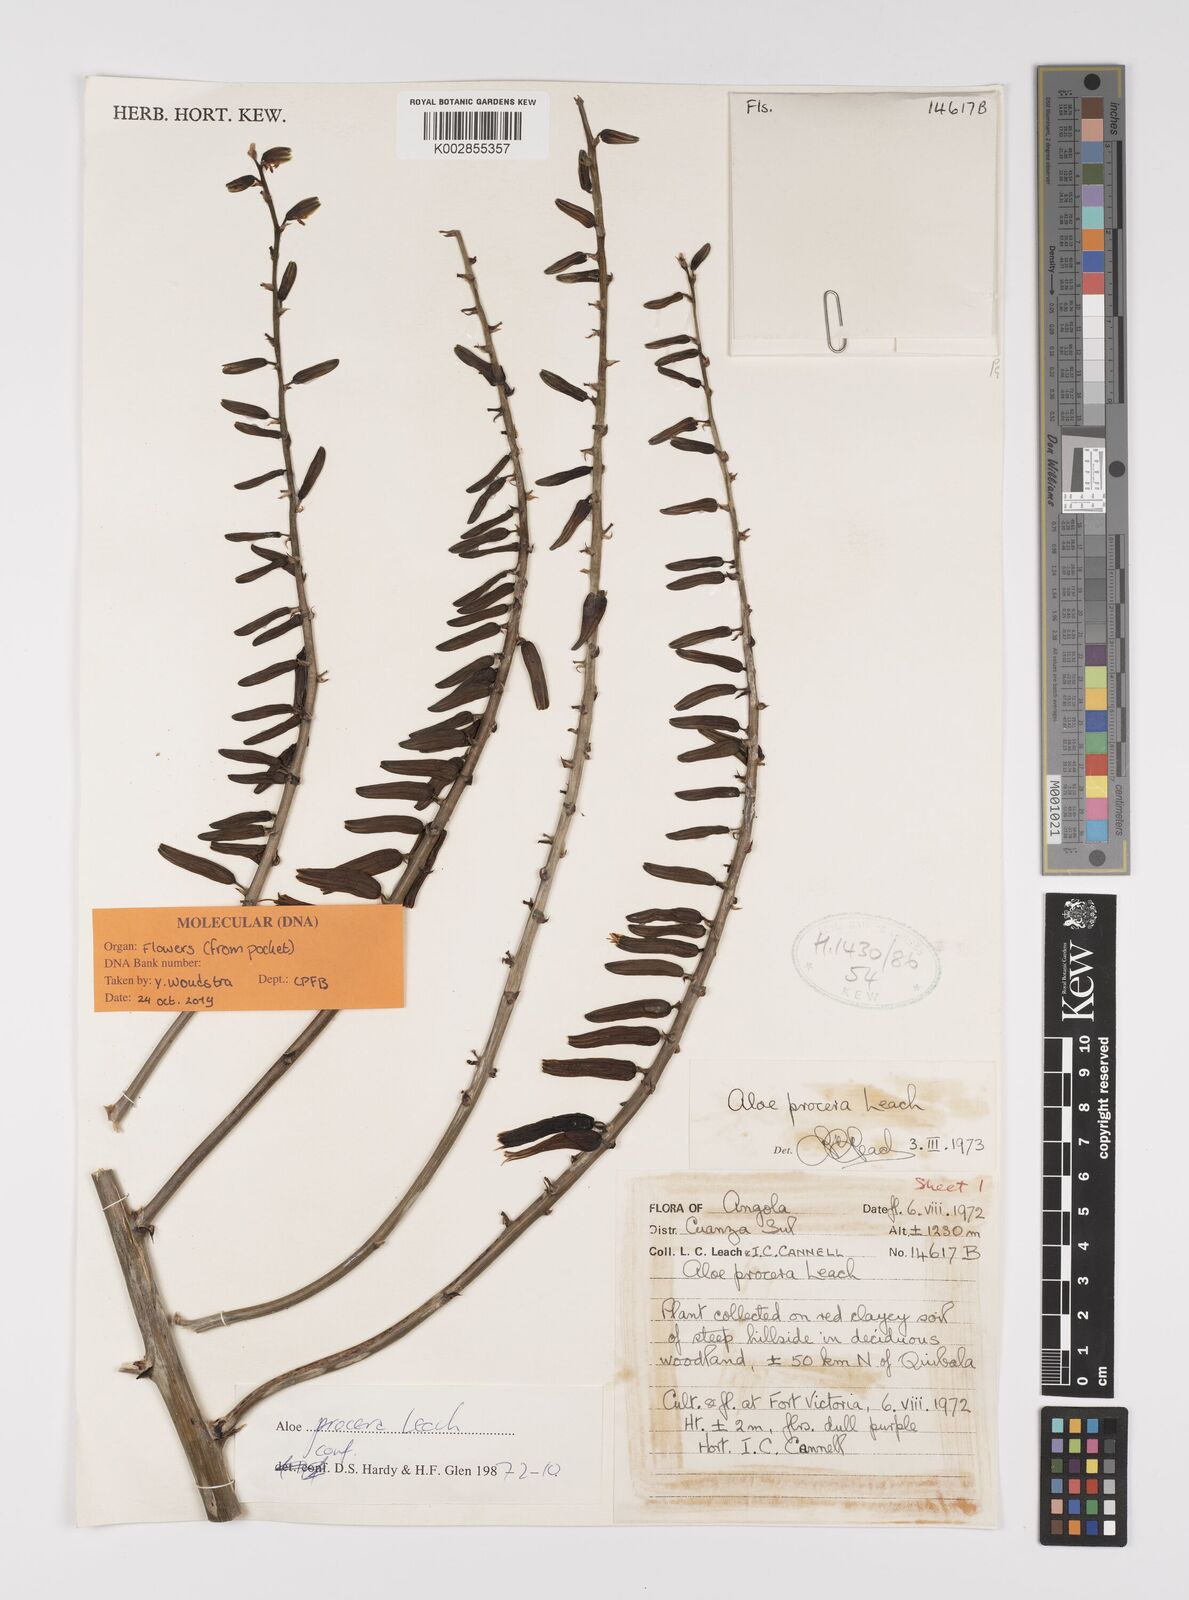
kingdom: Plantae
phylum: Tracheophyta
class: Liliopsida
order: Asparagales
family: Asphodelaceae
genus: Aloe
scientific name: Aloe procera
